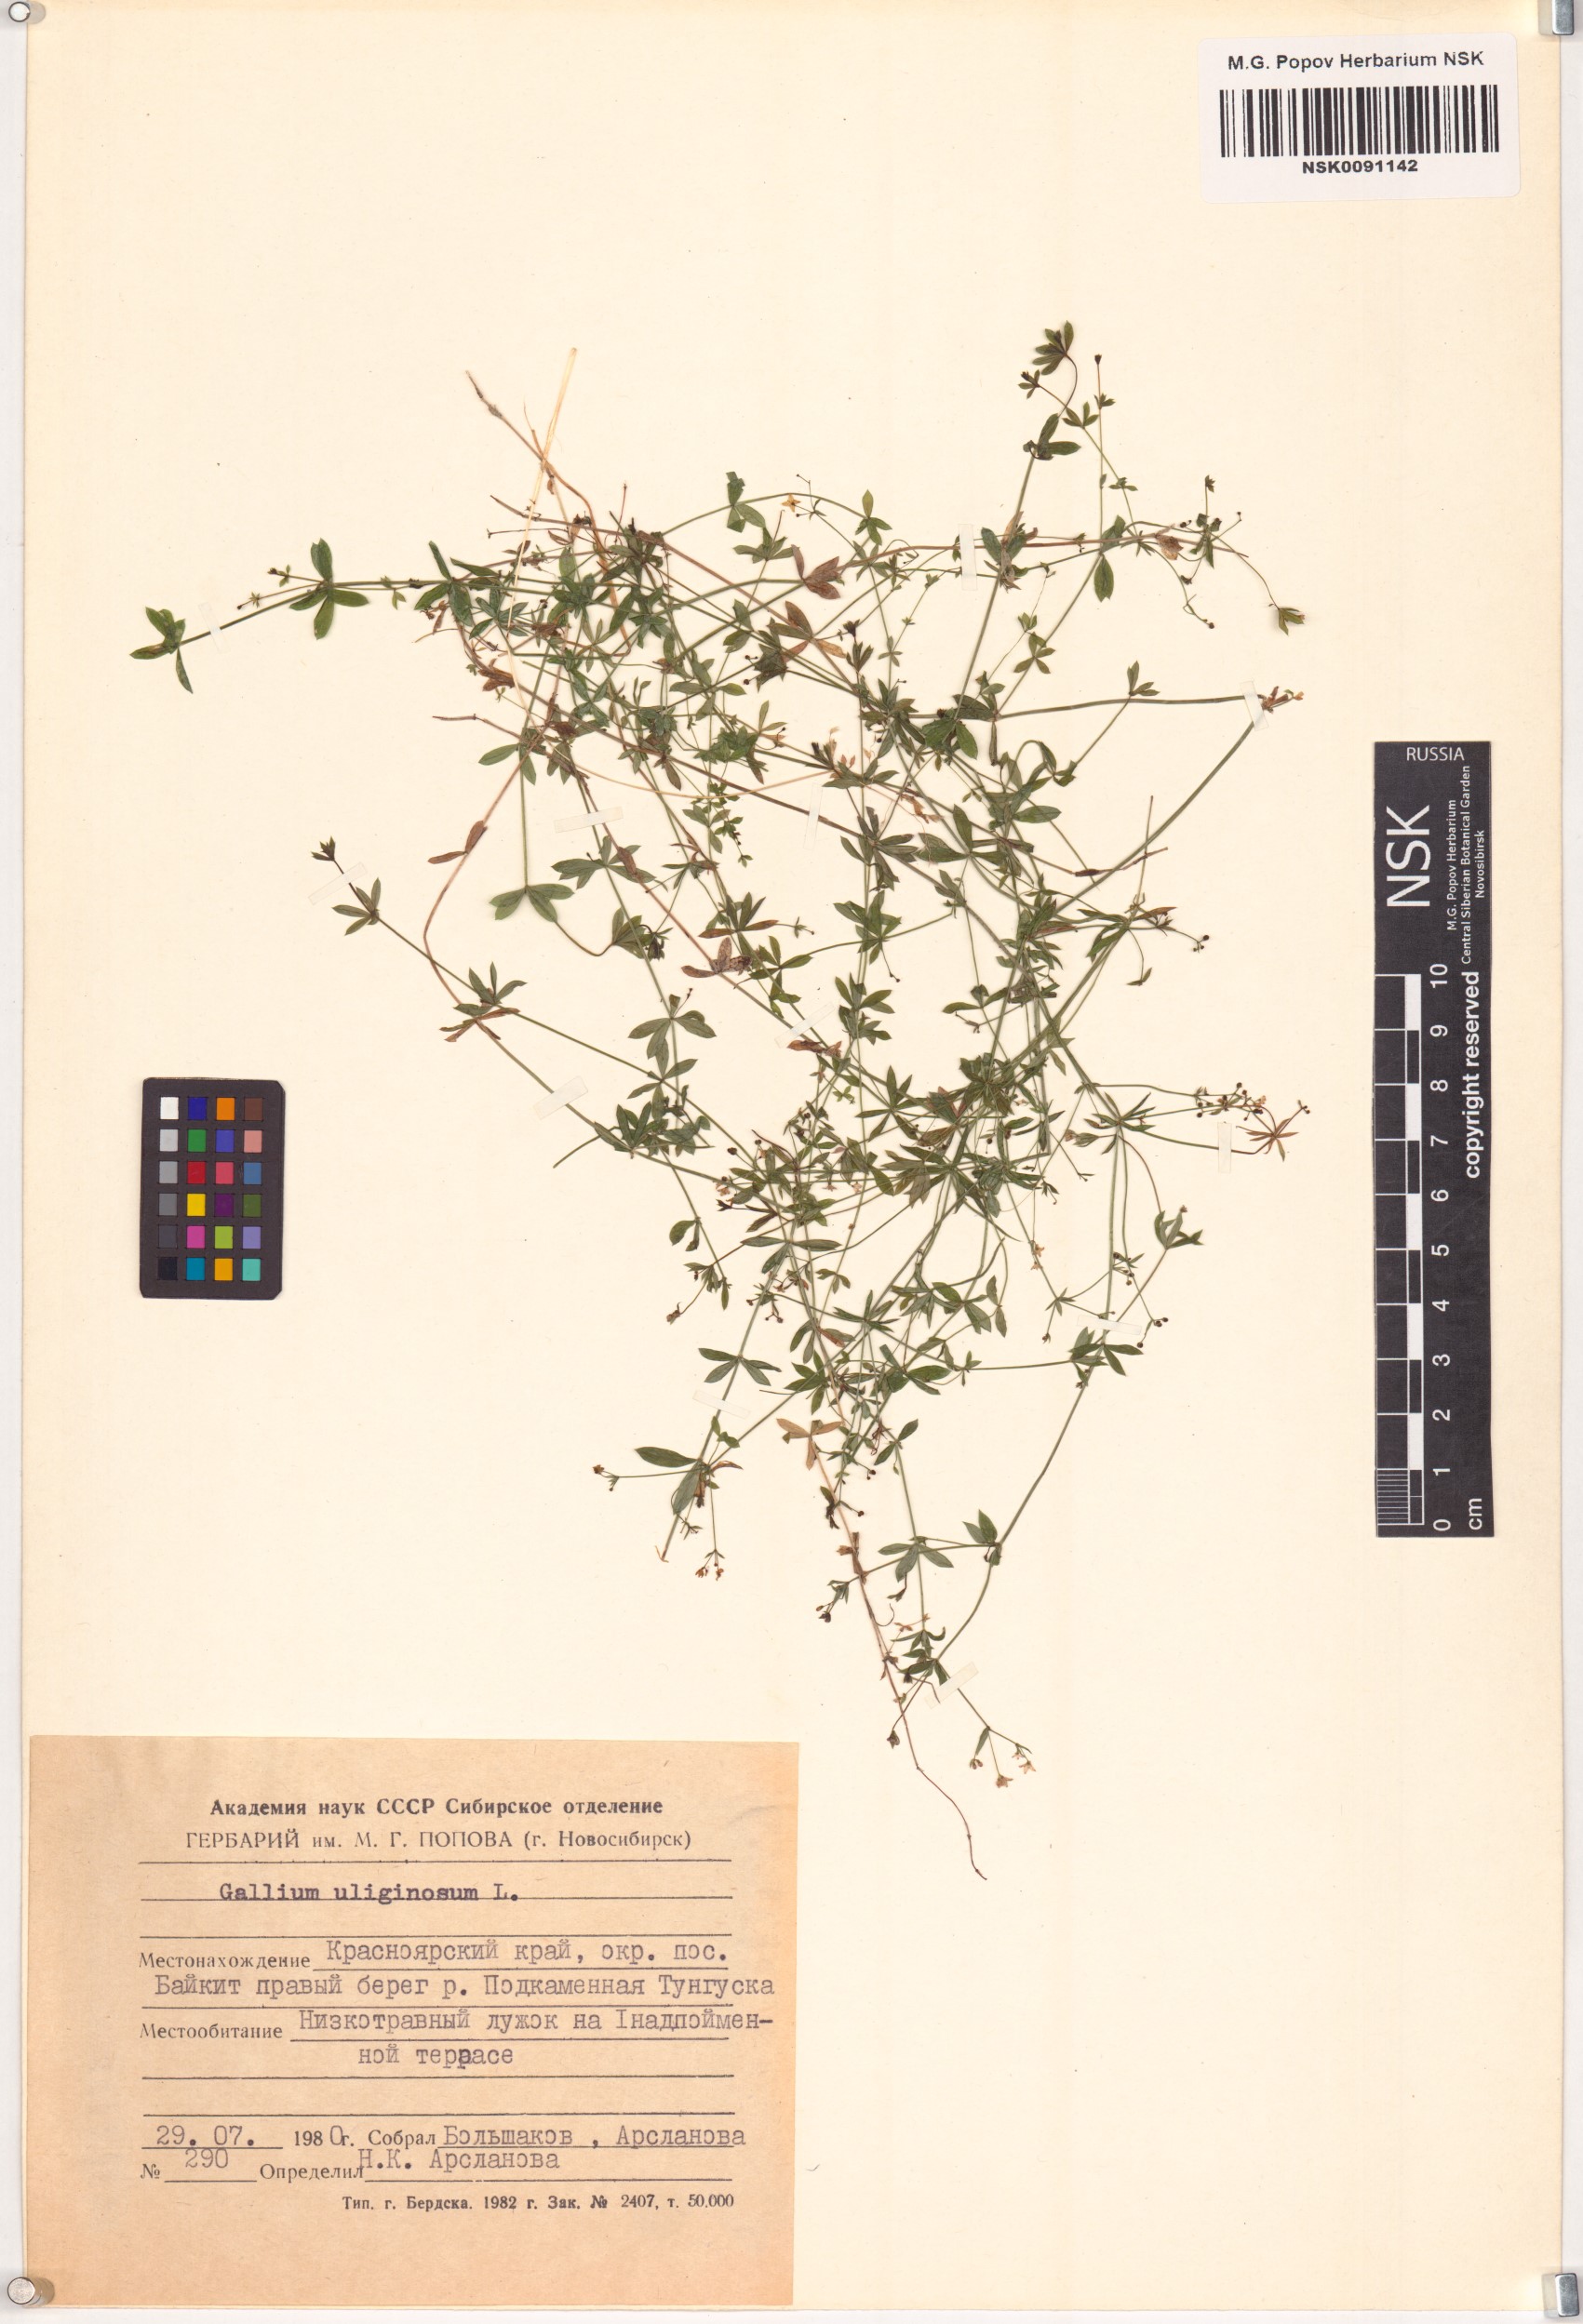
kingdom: Plantae
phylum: Tracheophyta
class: Magnoliopsida
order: Gentianales
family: Rubiaceae
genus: Galium
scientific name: Galium uliginosum
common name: Fen bedstraw
